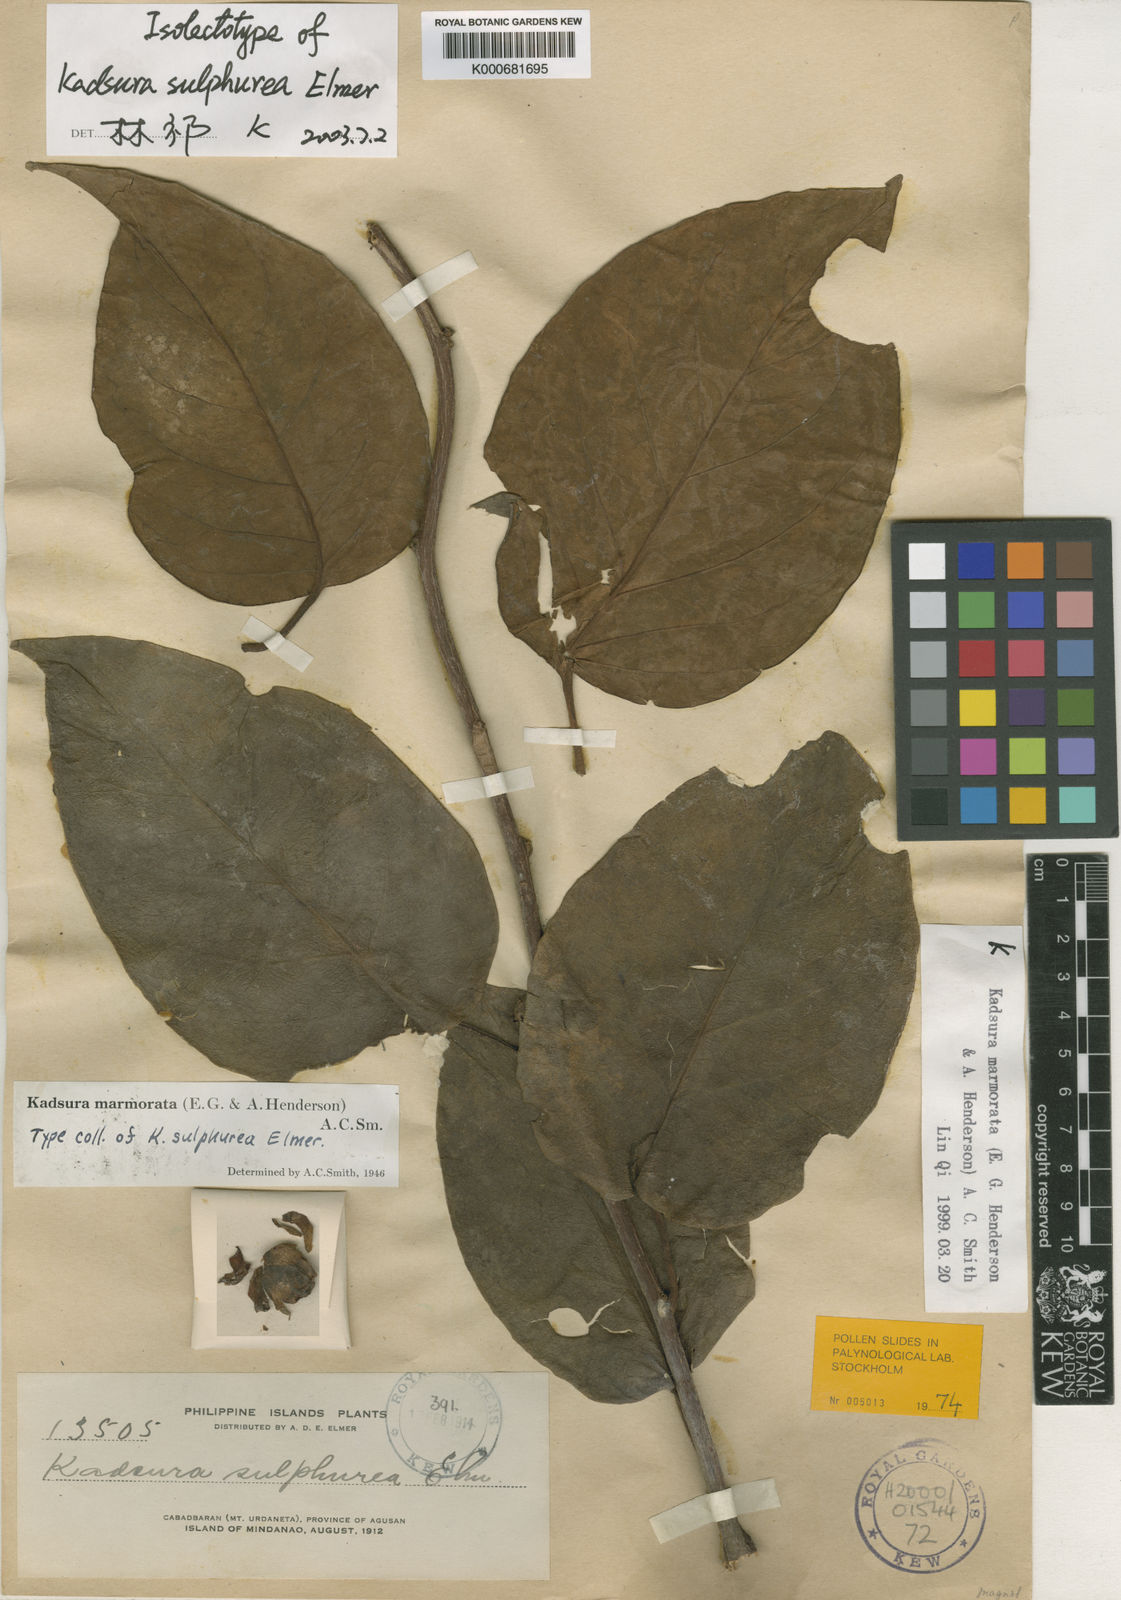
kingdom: Plantae
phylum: Tracheophyta
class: Magnoliopsida
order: Austrobaileyales
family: Schisandraceae
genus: Kadsura
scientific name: Kadsura
